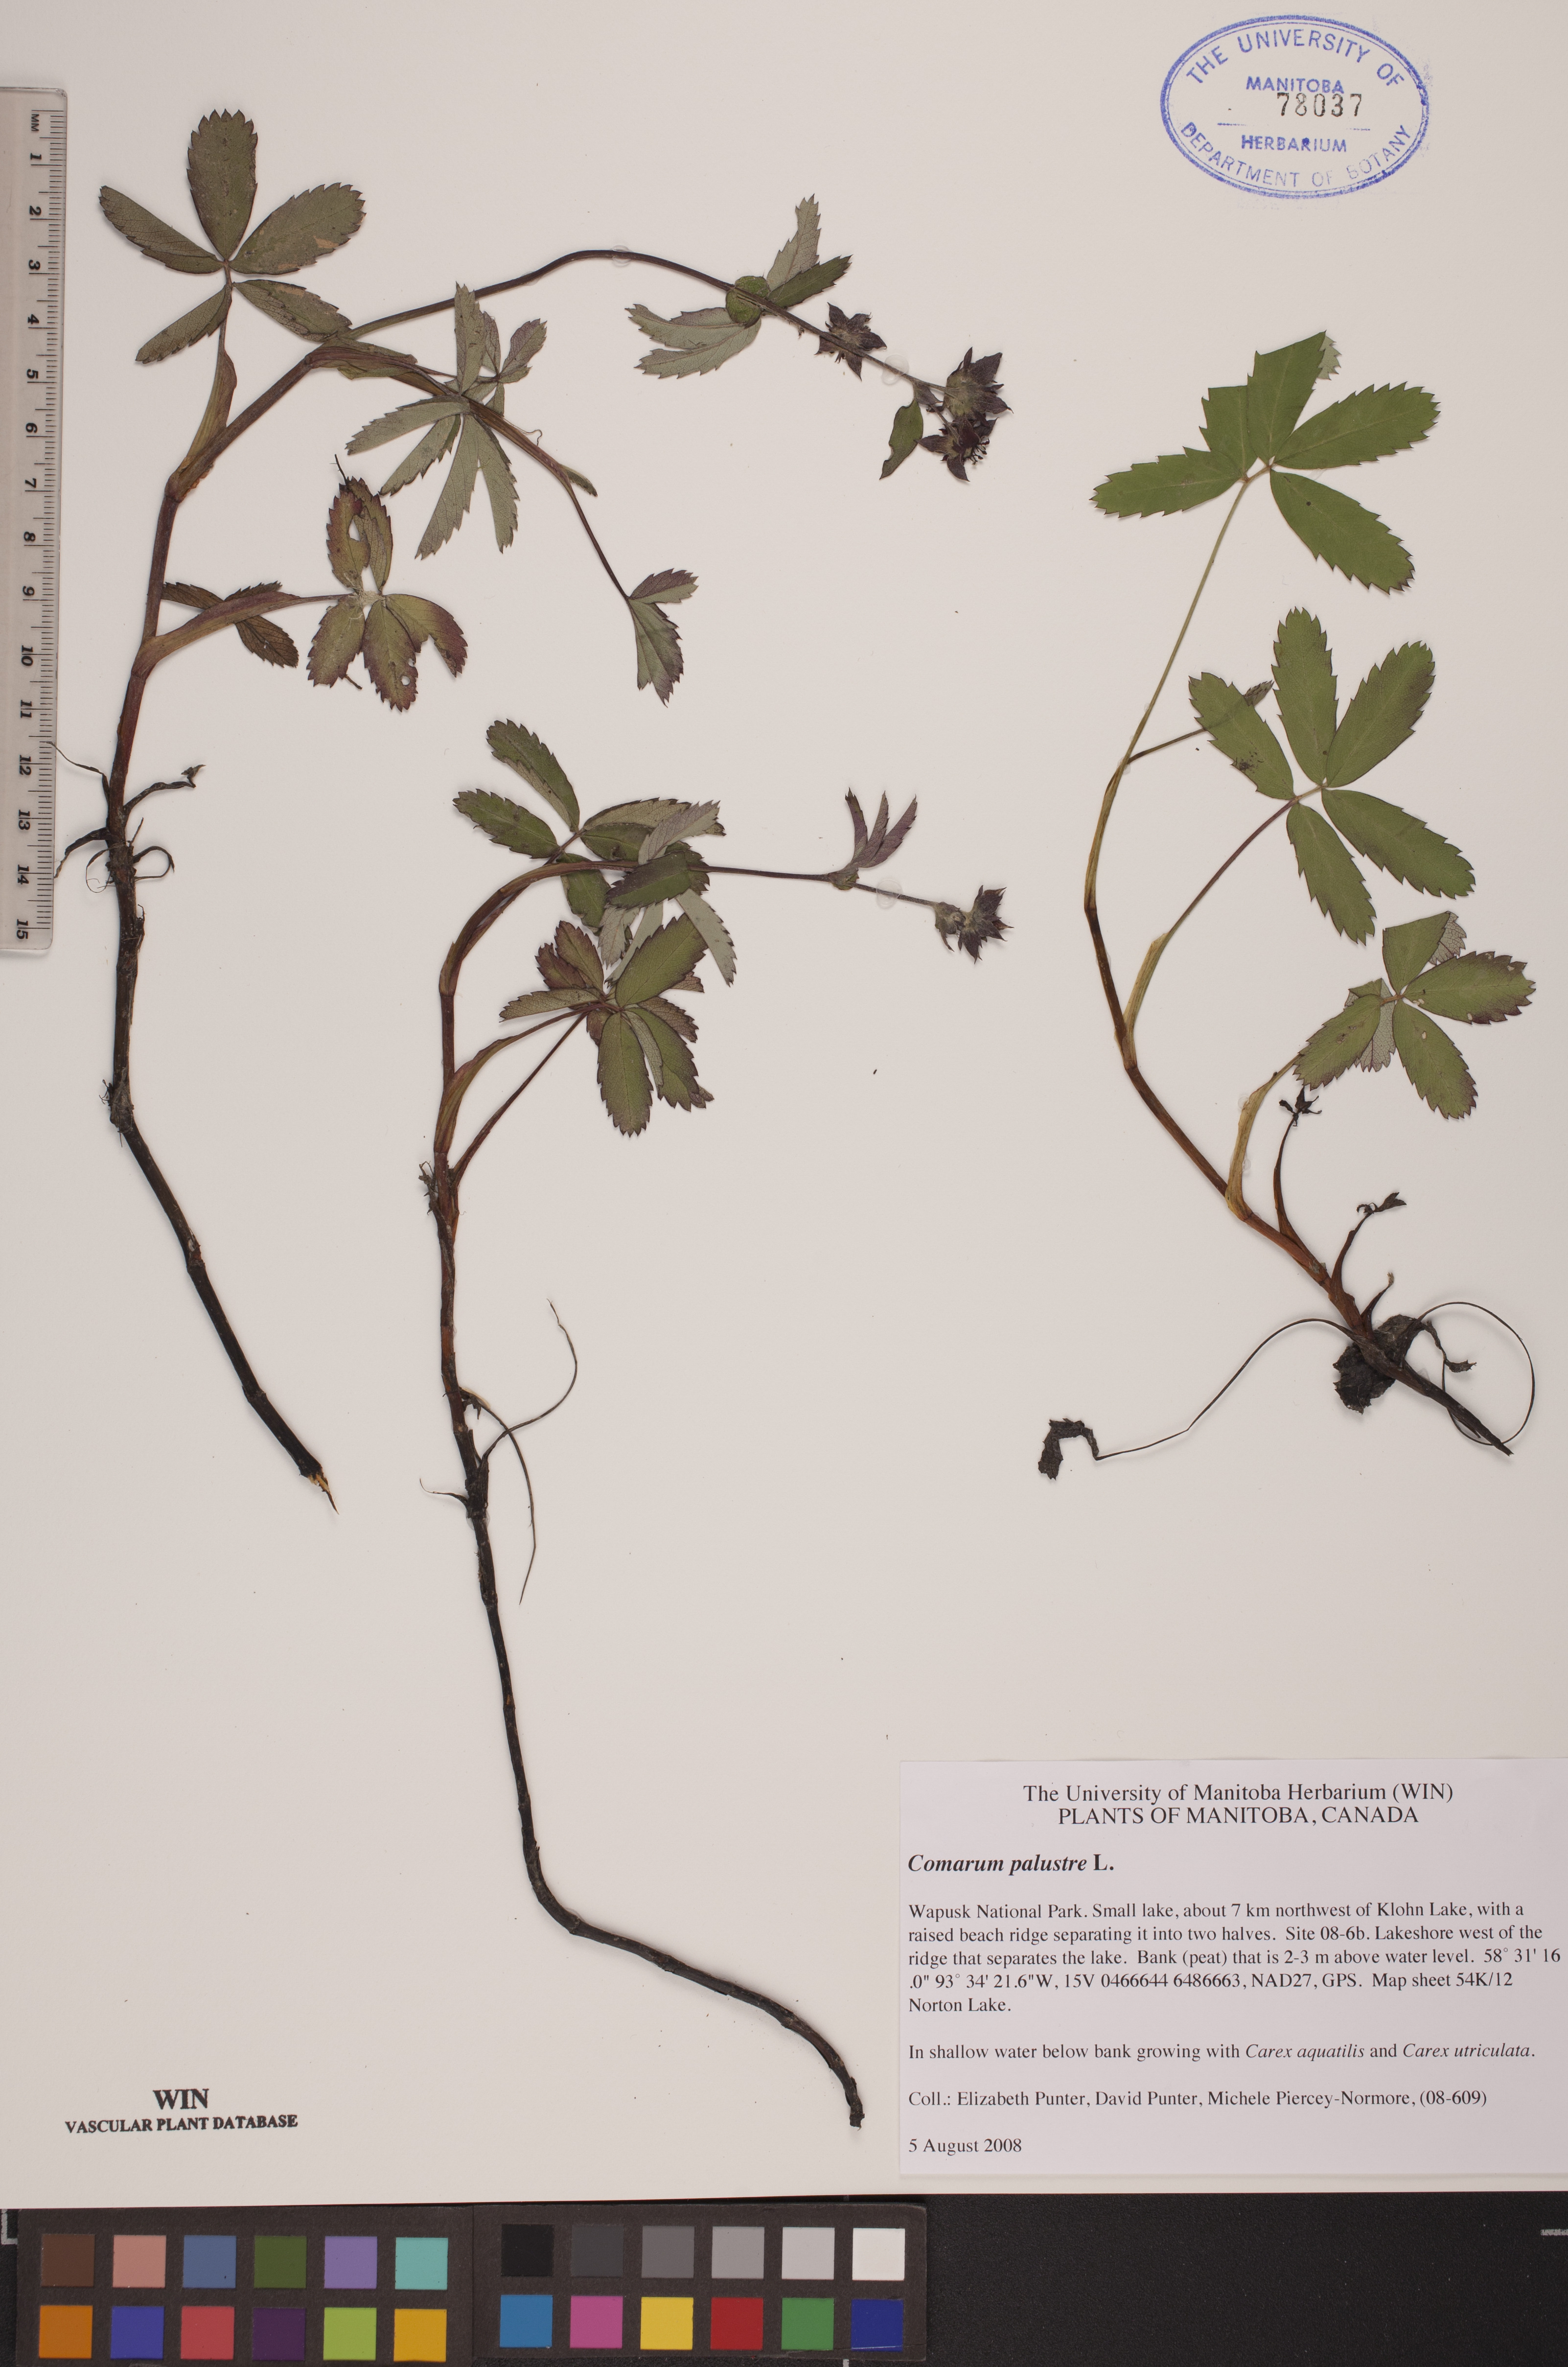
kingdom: Plantae
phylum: Tracheophyta
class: Magnoliopsida
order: Rosales
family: Rosaceae
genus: Comarum
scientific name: Comarum palustre
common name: Marsh cinquefoil
